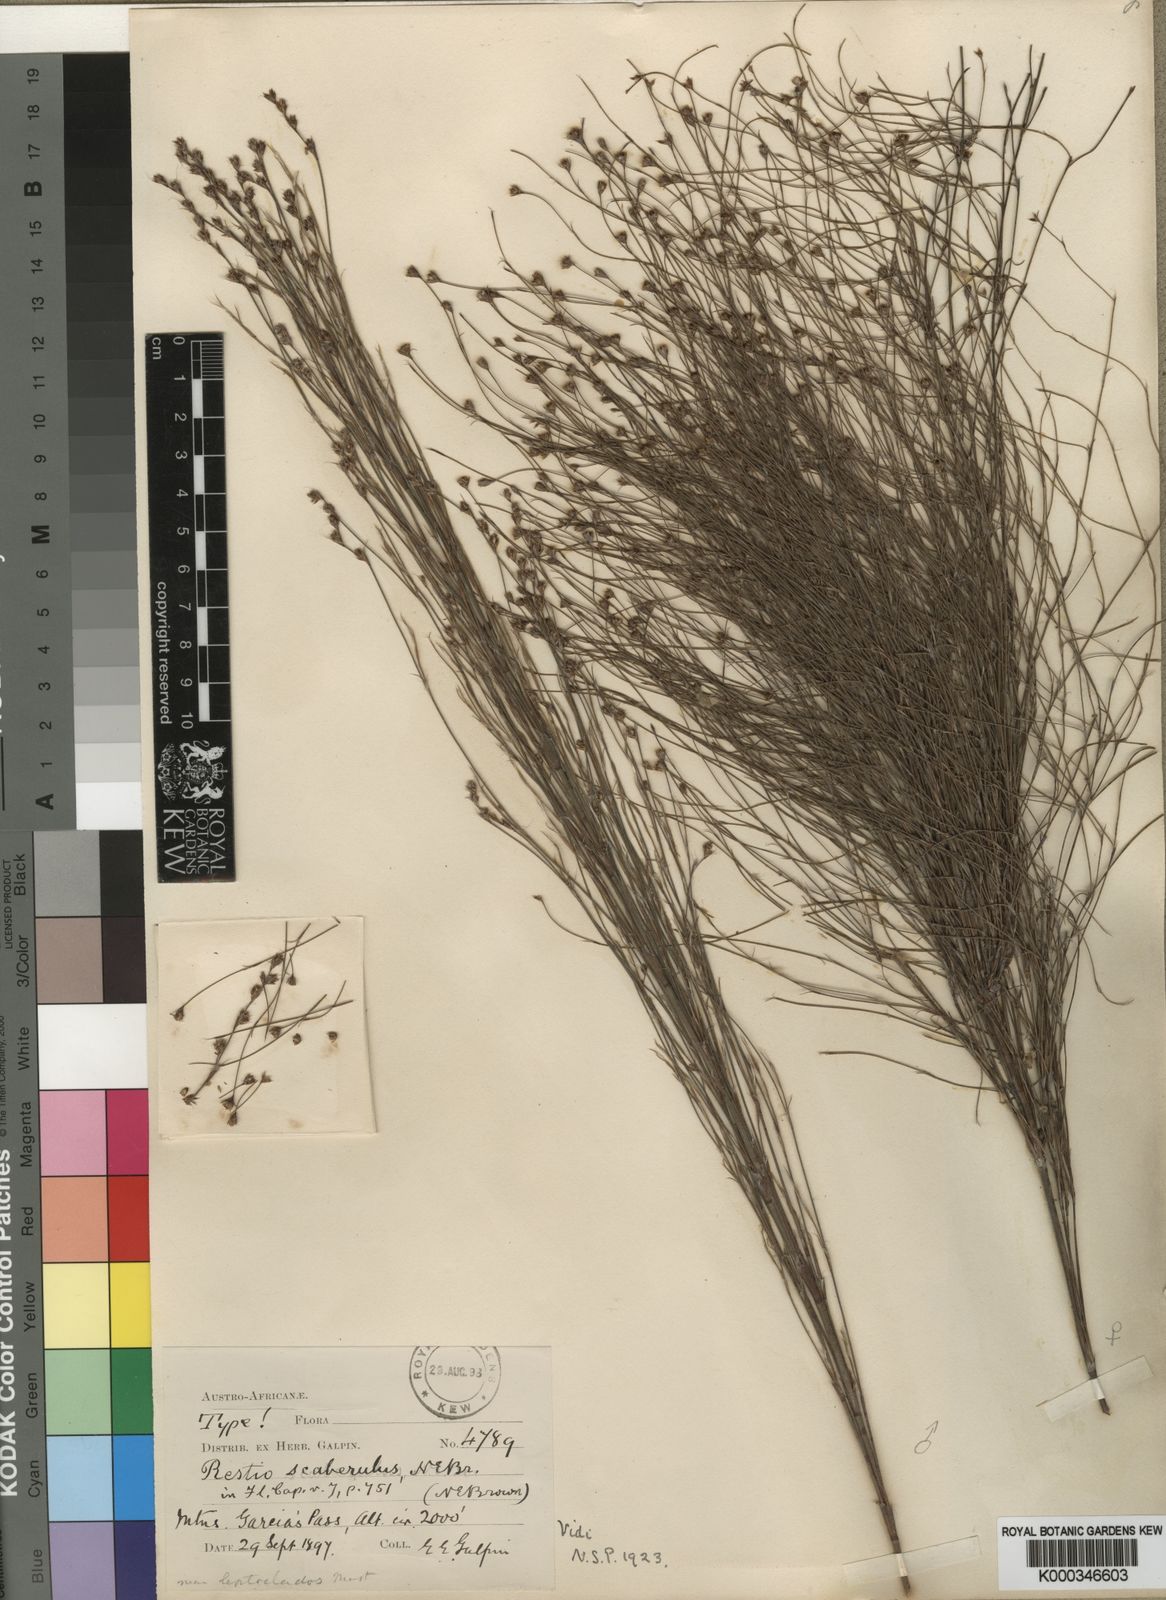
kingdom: Plantae
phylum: Tracheophyta
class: Liliopsida
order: Poales
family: Restionaceae
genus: Restio
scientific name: Restio scaberulus
